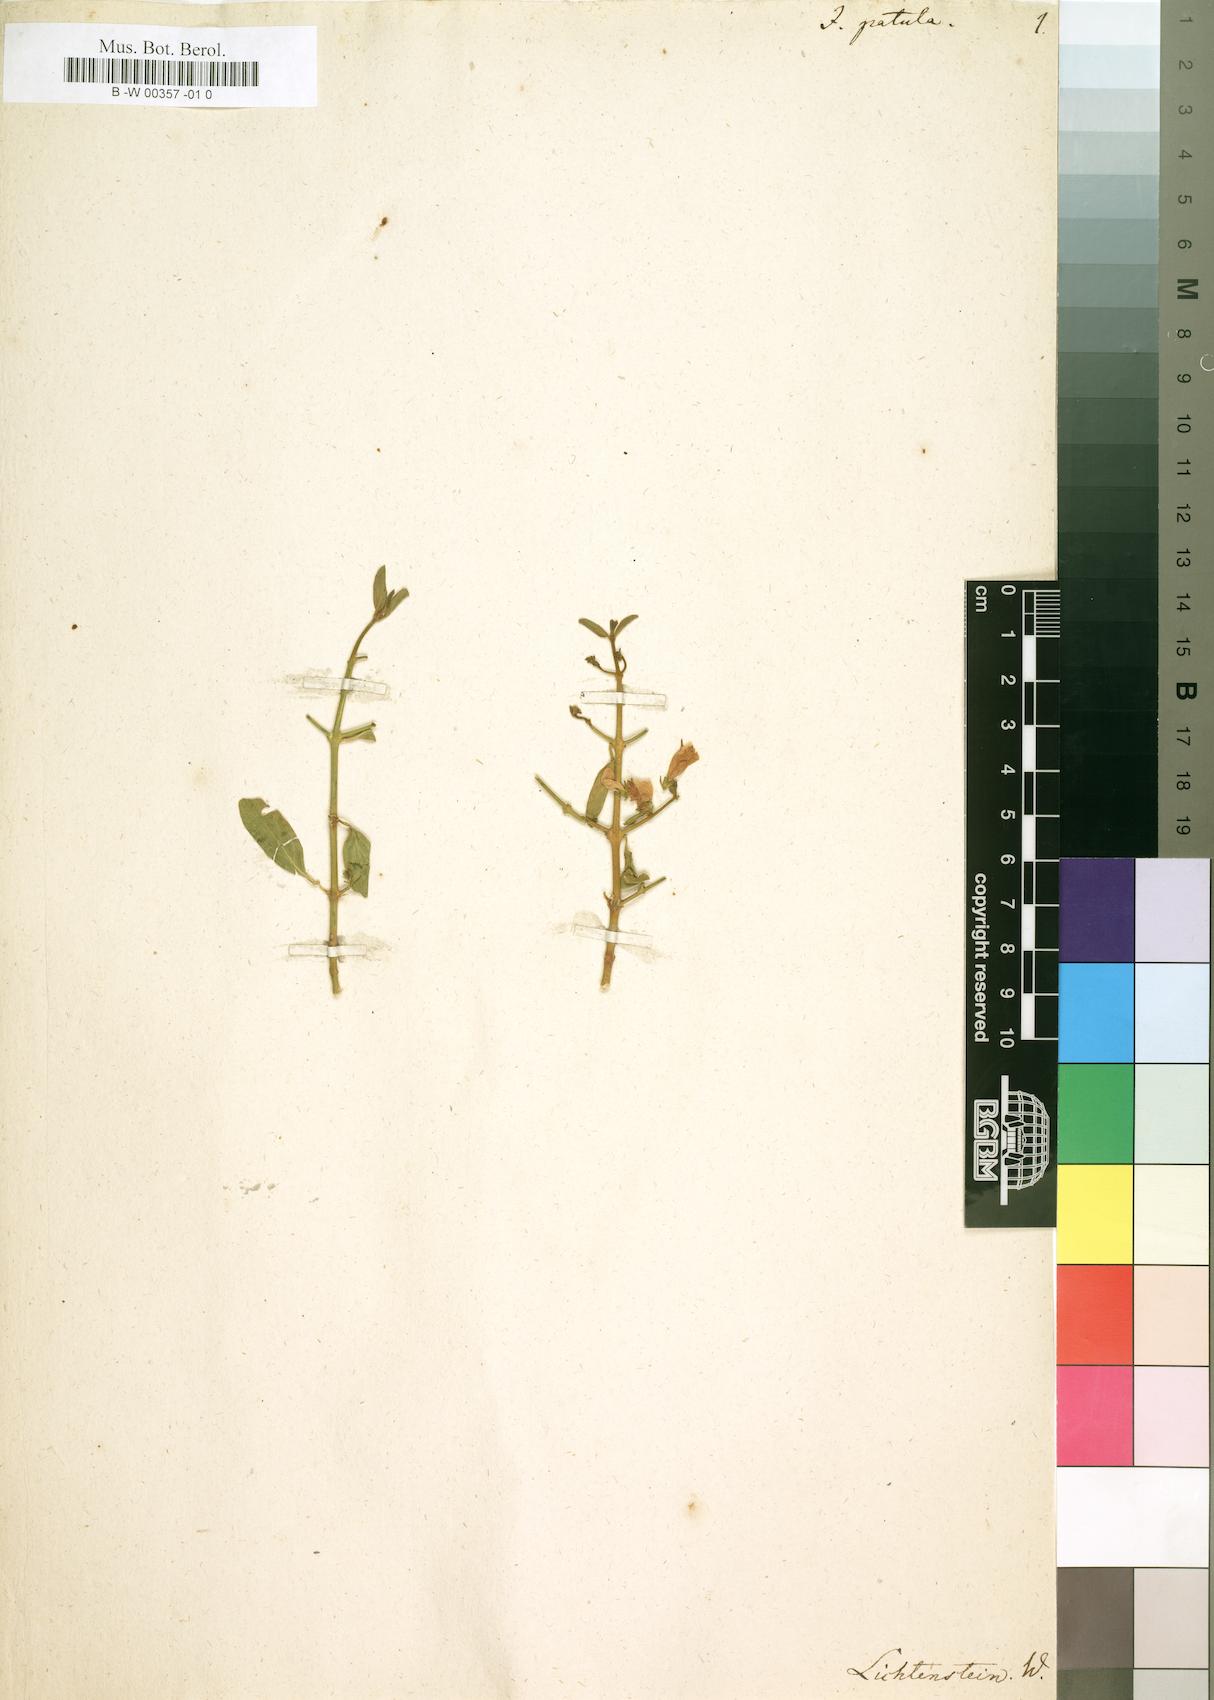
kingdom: Plantae
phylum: Tracheophyta
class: Magnoliopsida
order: Lamiales
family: Acanthaceae
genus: Monechma
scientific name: Monechma spartioides
